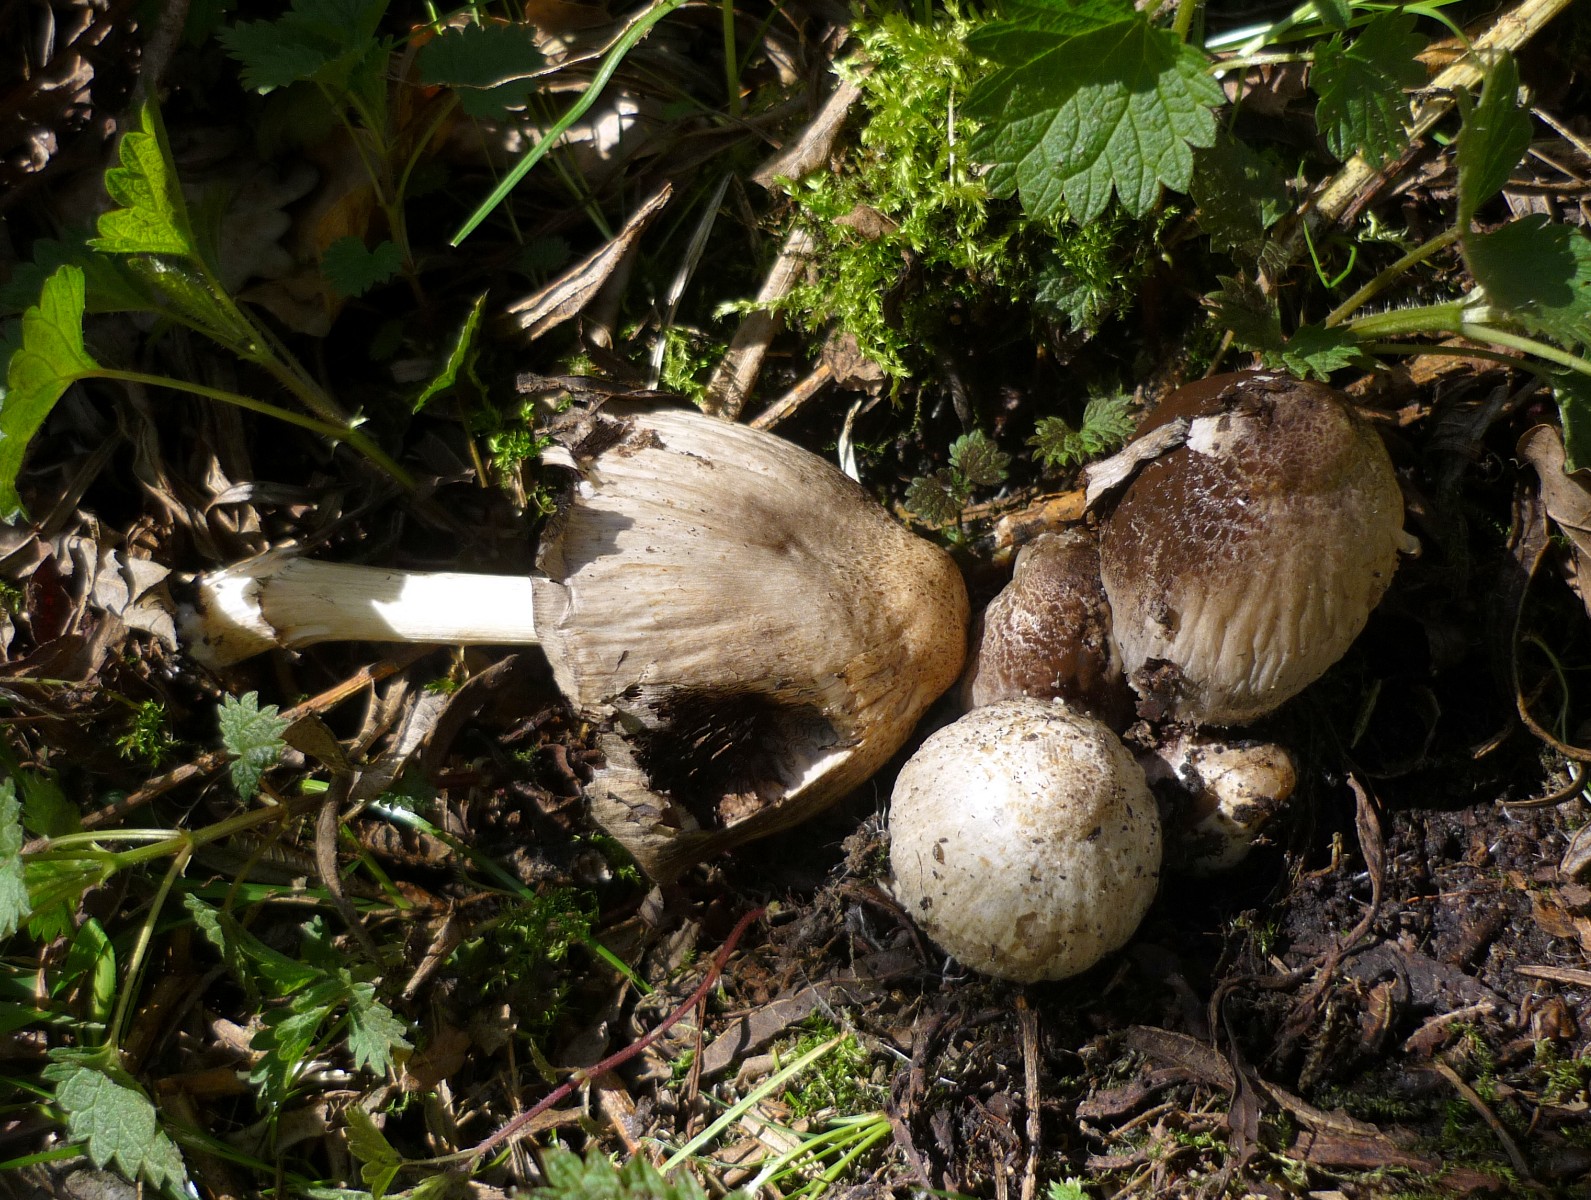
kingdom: Fungi
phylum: Basidiomycota
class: Agaricomycetes
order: Agaricales
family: Psathyrellaceae
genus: Coprinopsis
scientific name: Coprinopsis atramentaria
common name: almindelig blækhat
